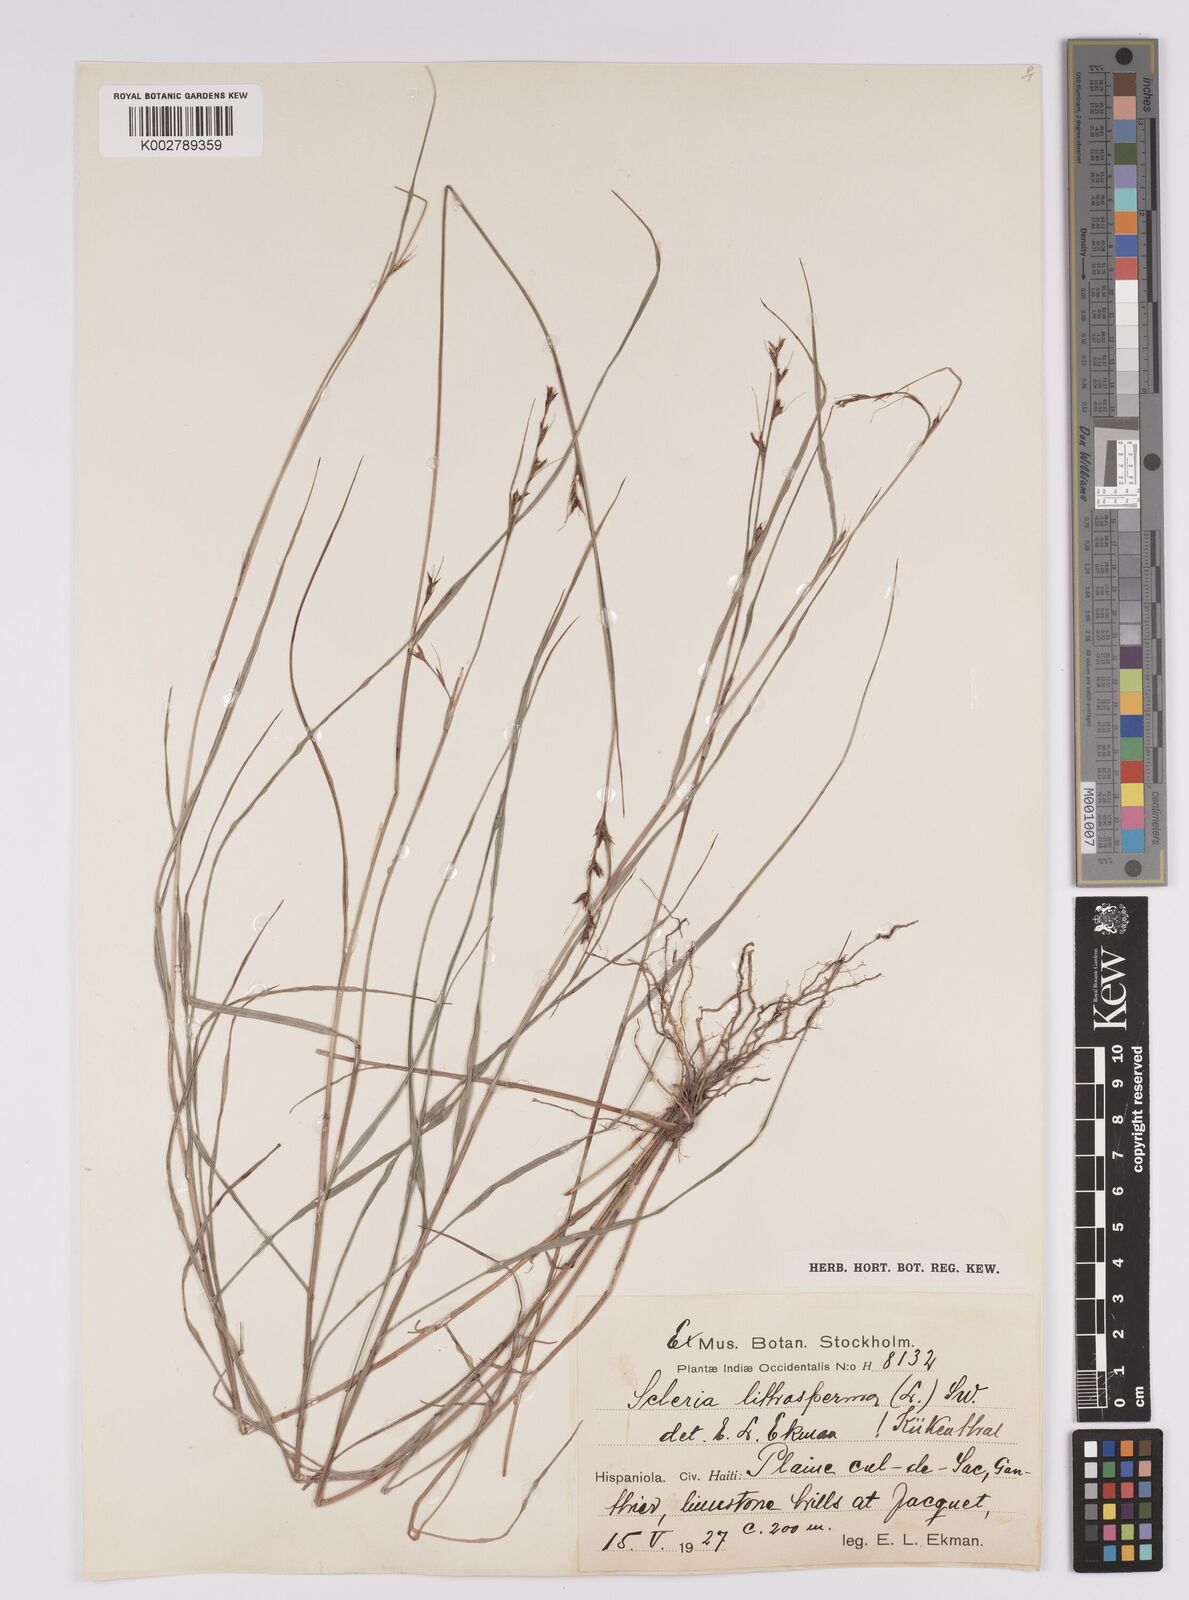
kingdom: Plantae
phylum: Tracheophyta
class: Liliopsida
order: Poales
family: Cyperaceae
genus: Scleria
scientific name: Scleria lithosperma
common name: Florida keys nut-rush
